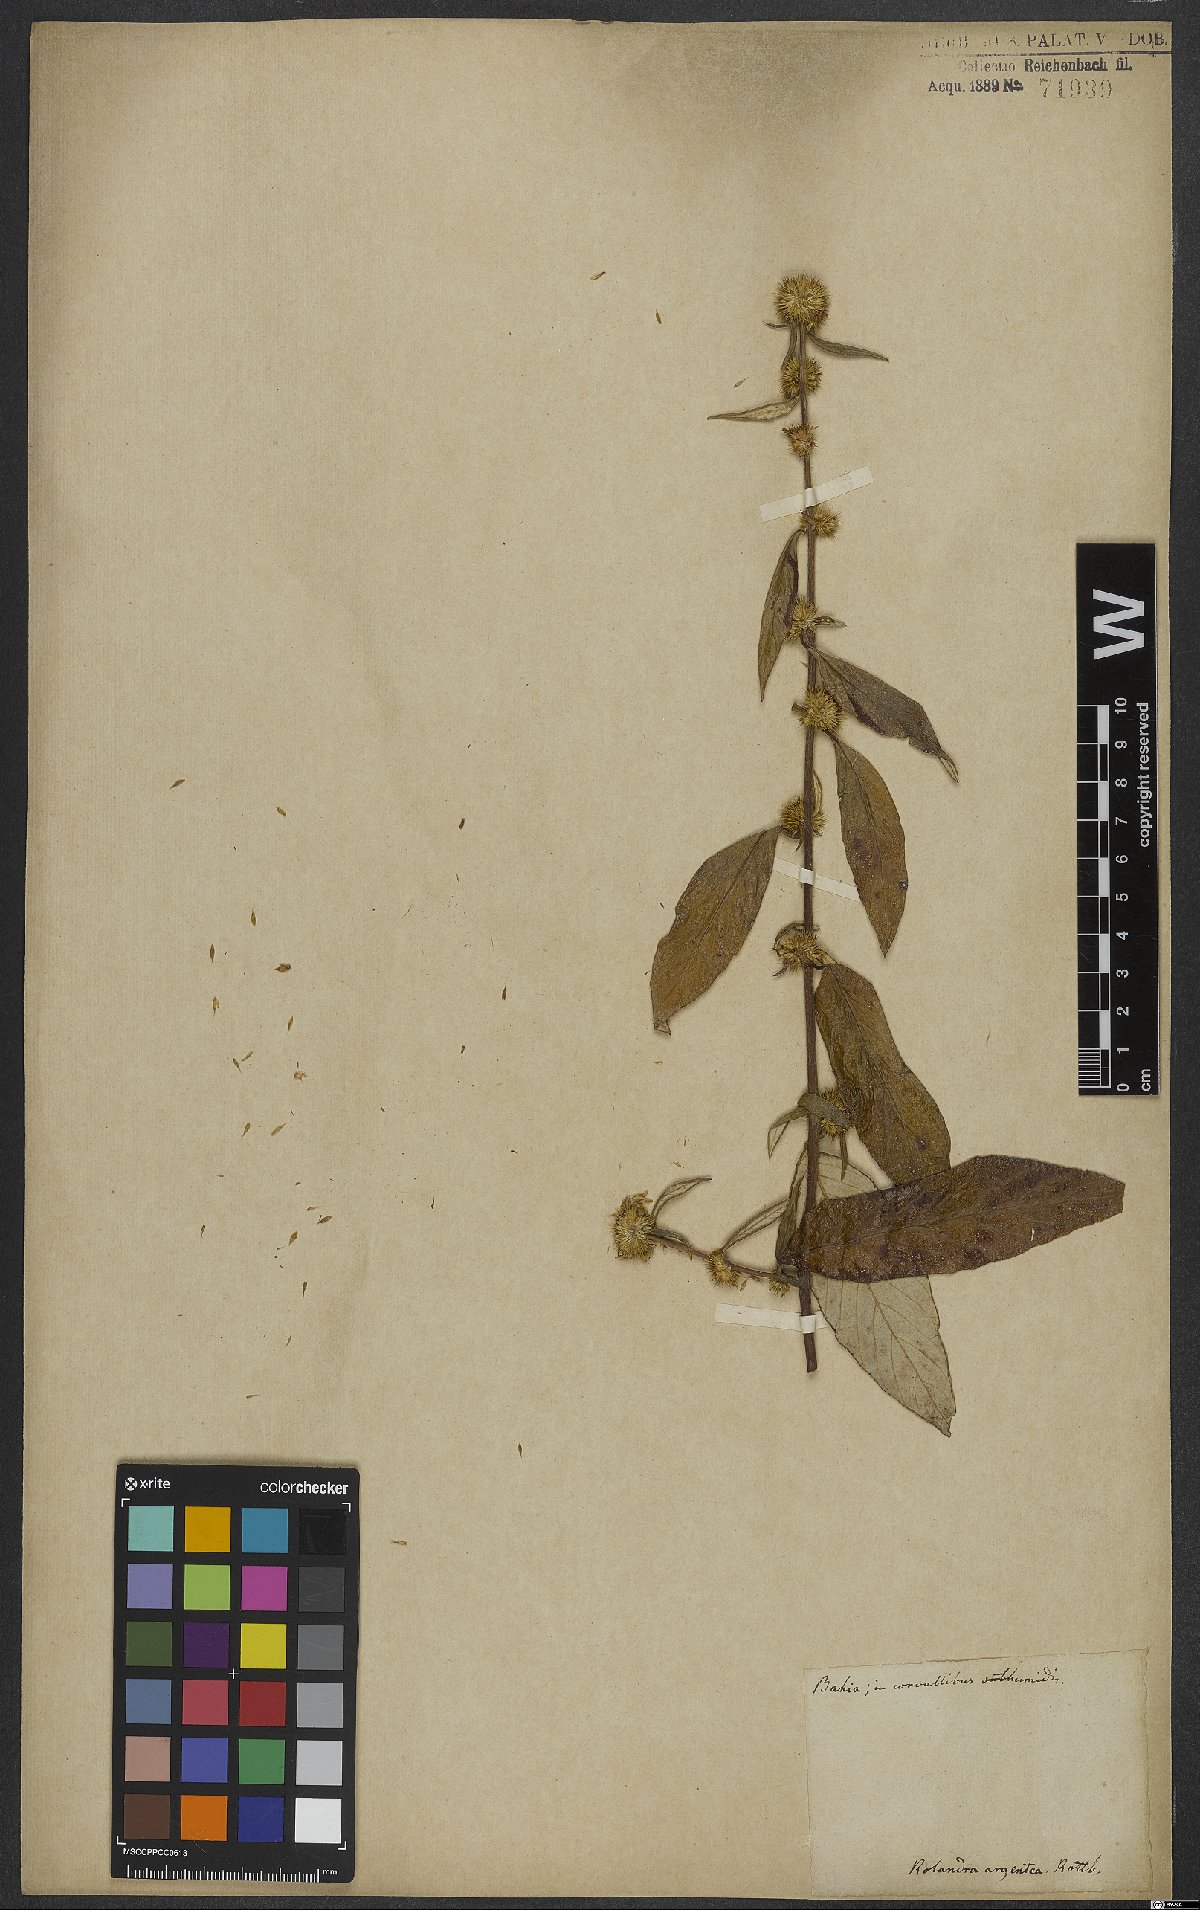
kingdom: Plantae
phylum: Tracheophyta
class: Magnoliopsida
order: Asterales
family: Asteraceae
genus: Rolandra
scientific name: Rolandra fruticosa
